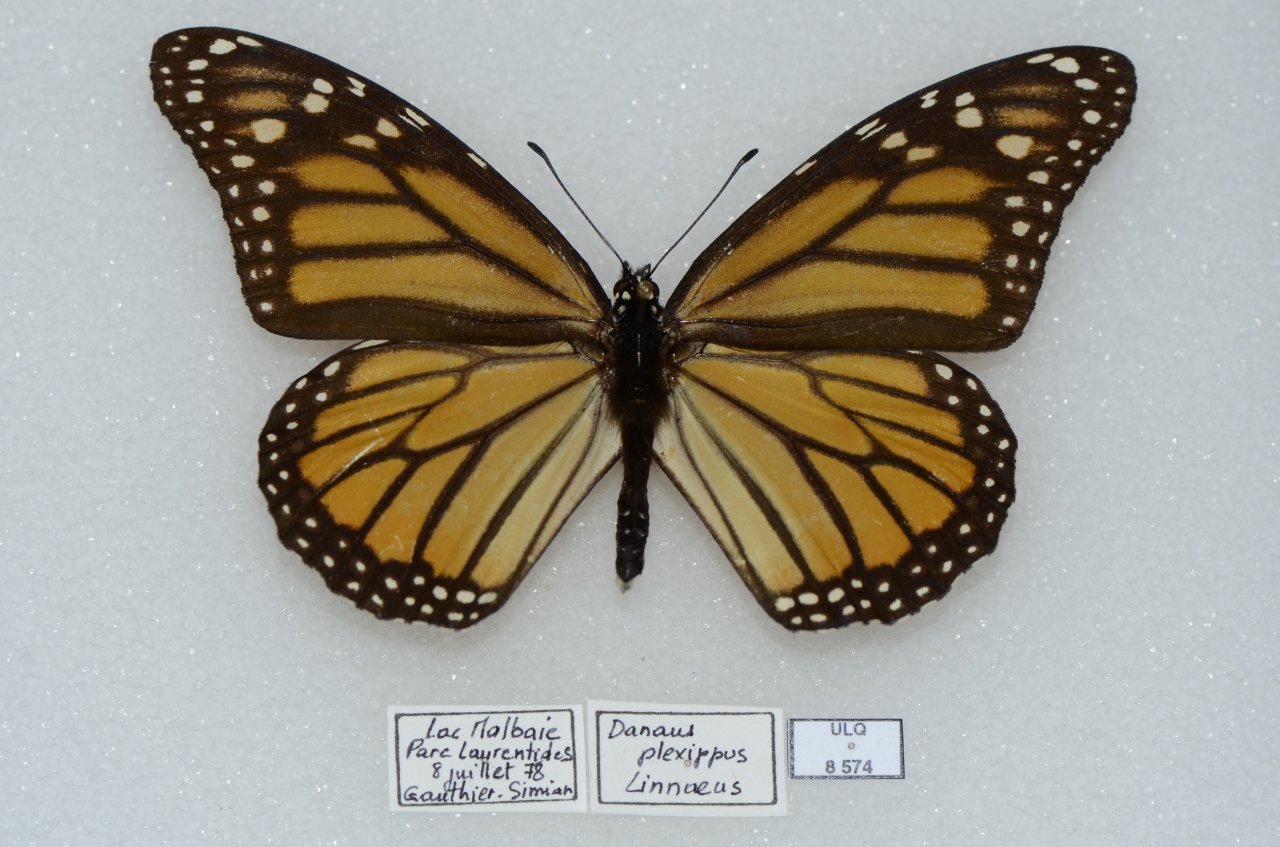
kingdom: Animalia
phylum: Arthropoda
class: Insecta
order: Lepidoptera
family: Nymphalidae
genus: Danaus
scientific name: Danaus plexippus
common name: Monarch
